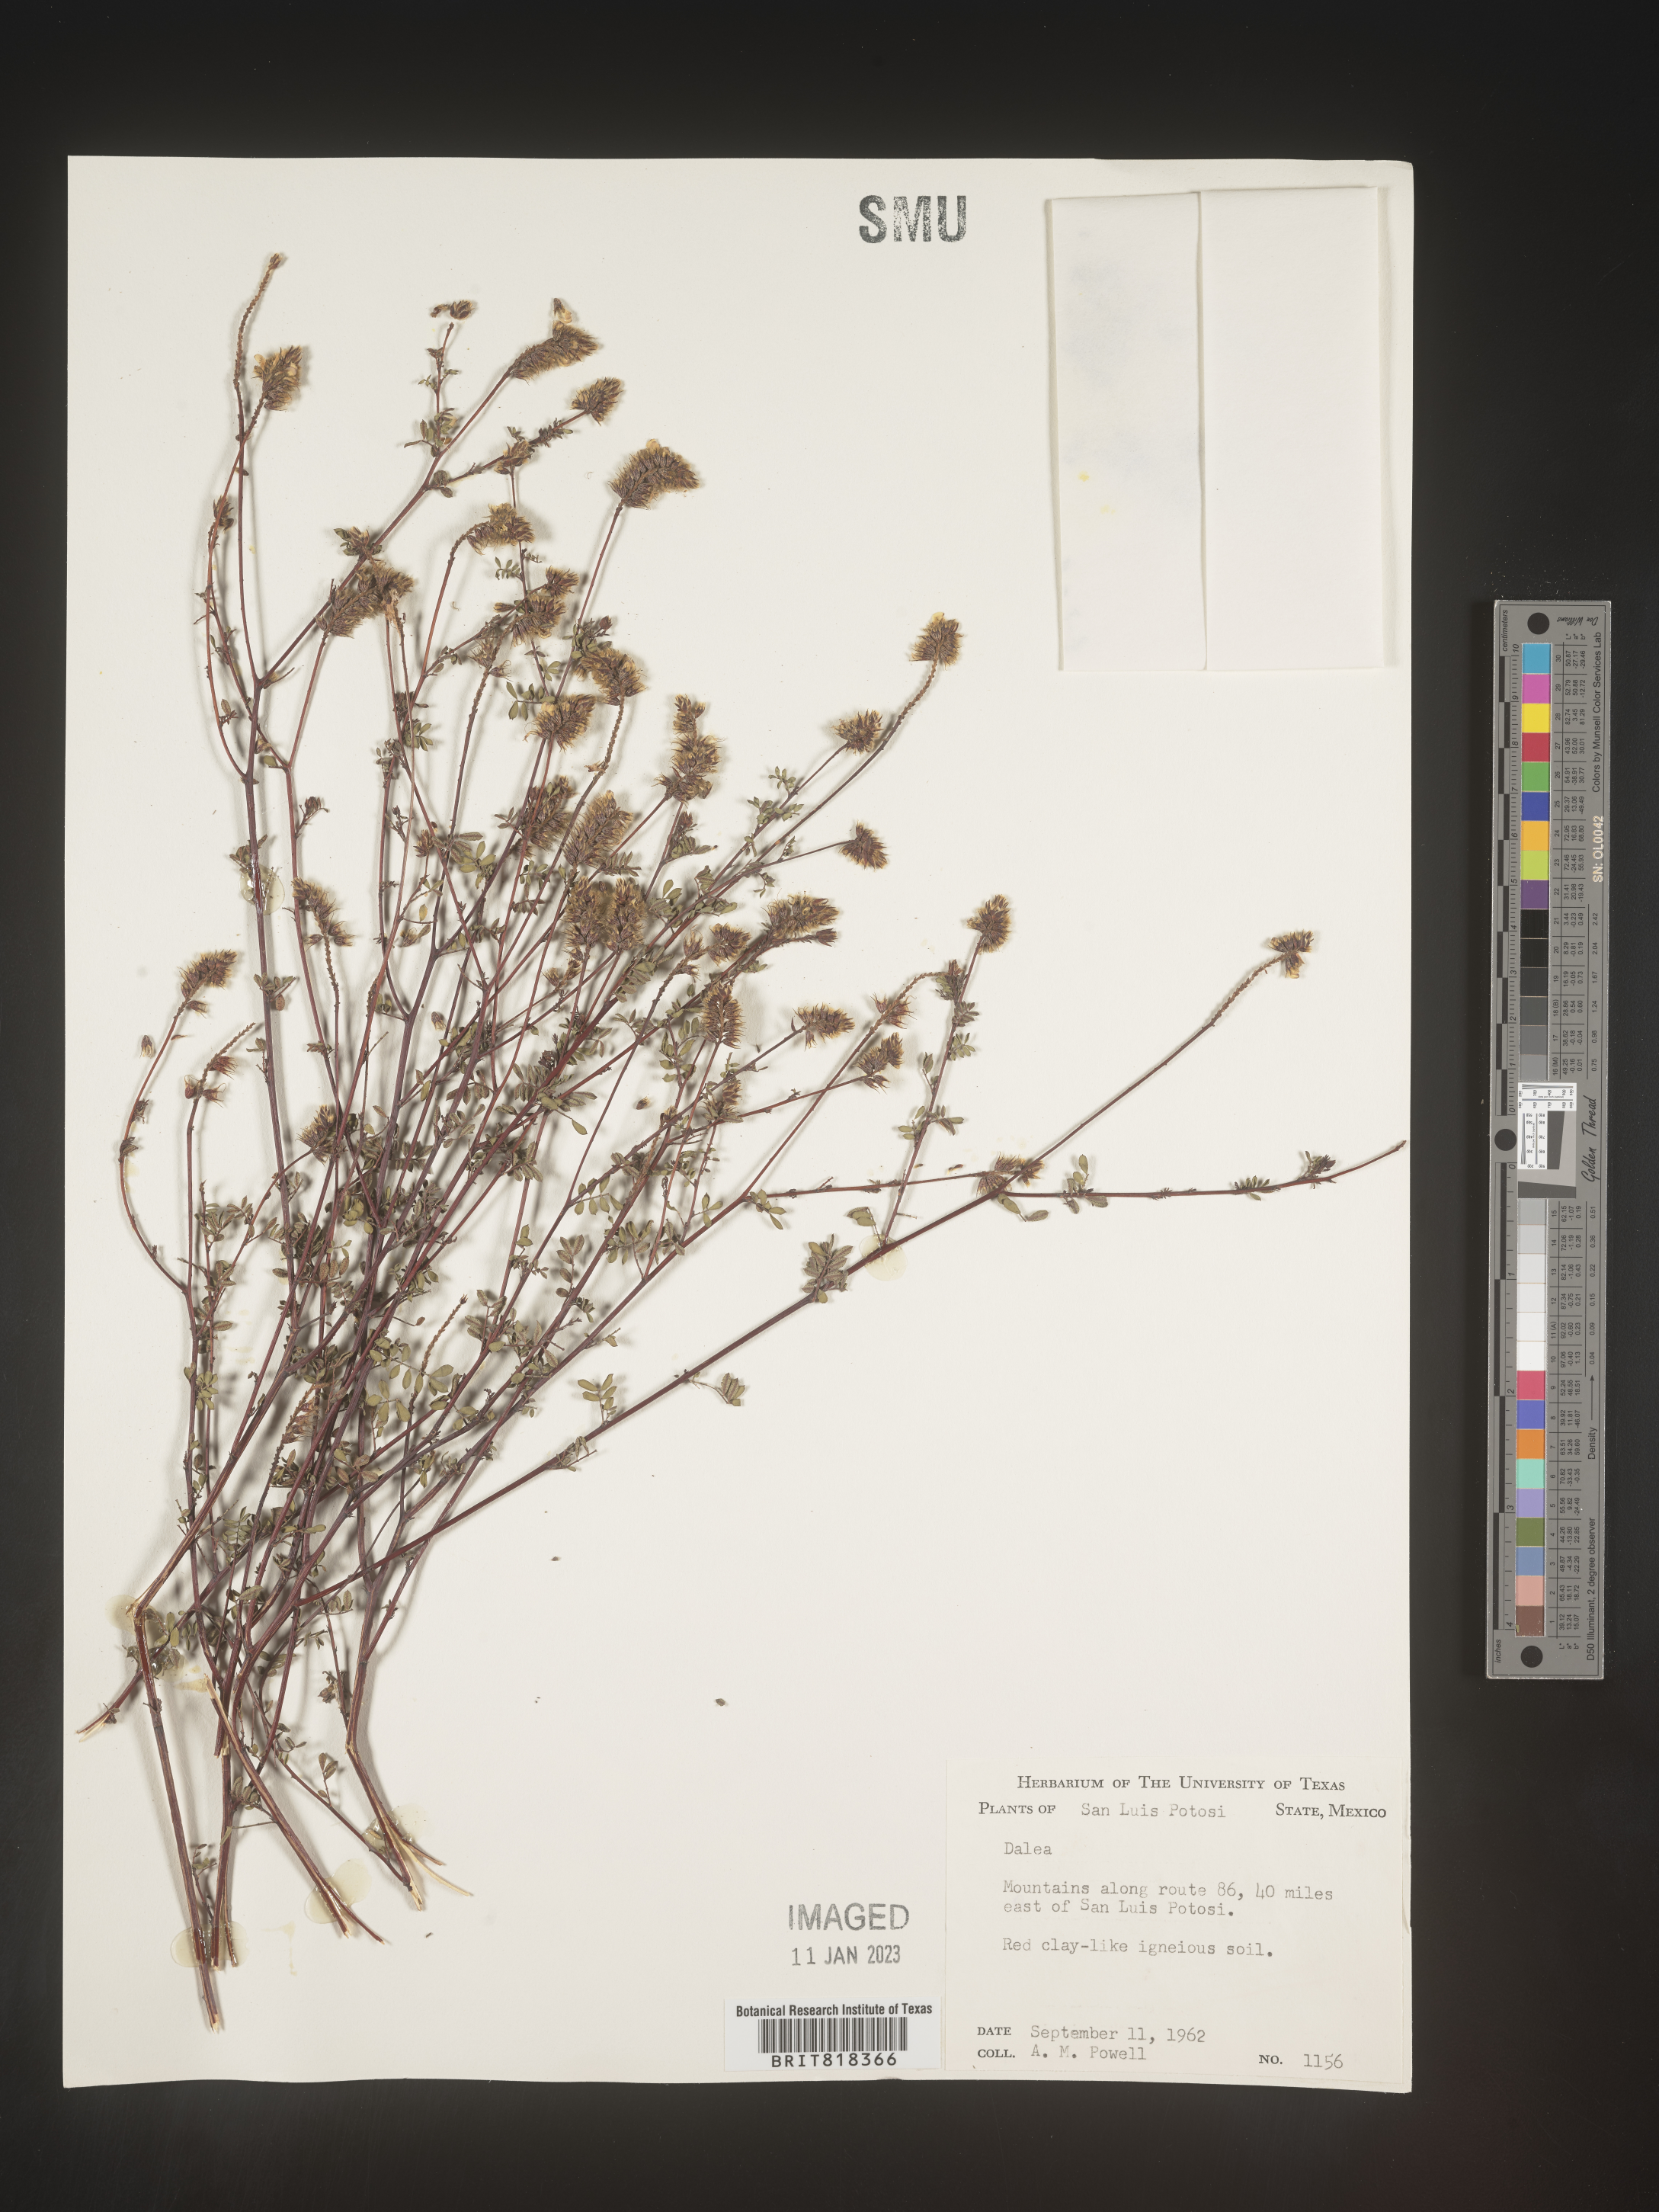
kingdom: Plantae
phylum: Tracheophyta
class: Magnoliopsida
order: Fabales
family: Fabaceae
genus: Dalea
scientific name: Dalea
